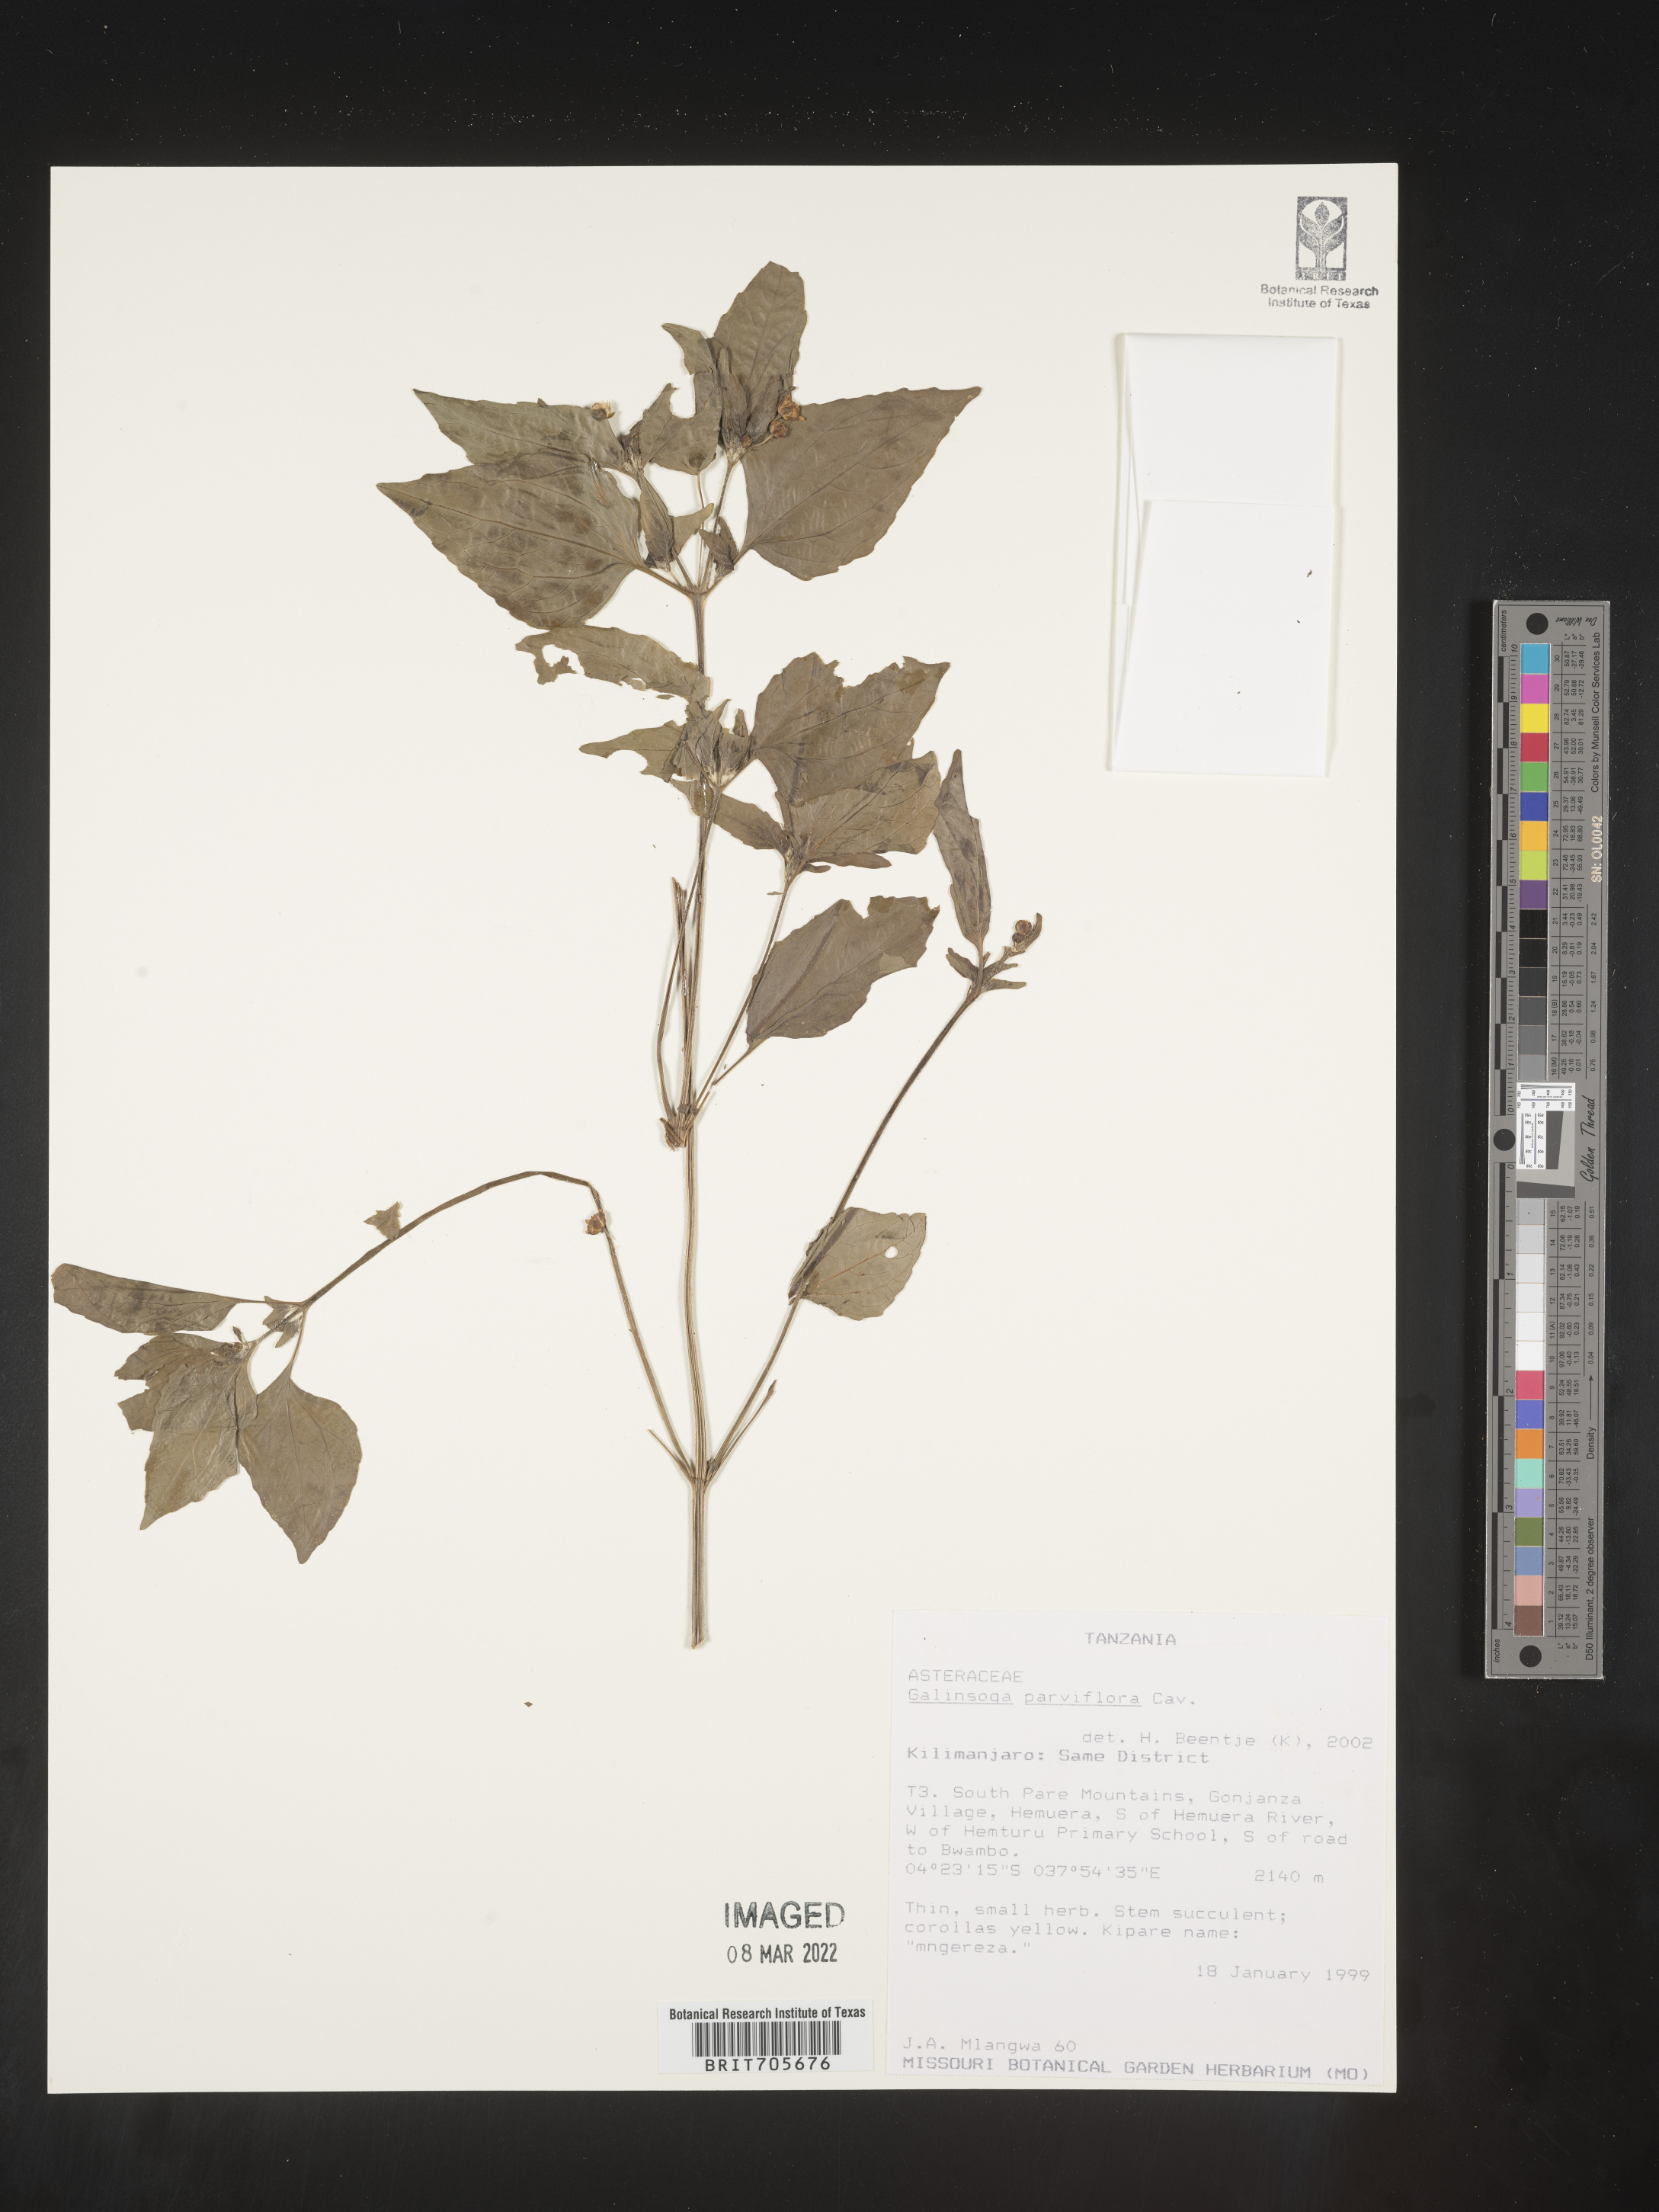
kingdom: Plantae
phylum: Tracheophyta
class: Magnoliopsida
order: Asterales
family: Asteraceae
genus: Galinsoga
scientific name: Galinsoga
